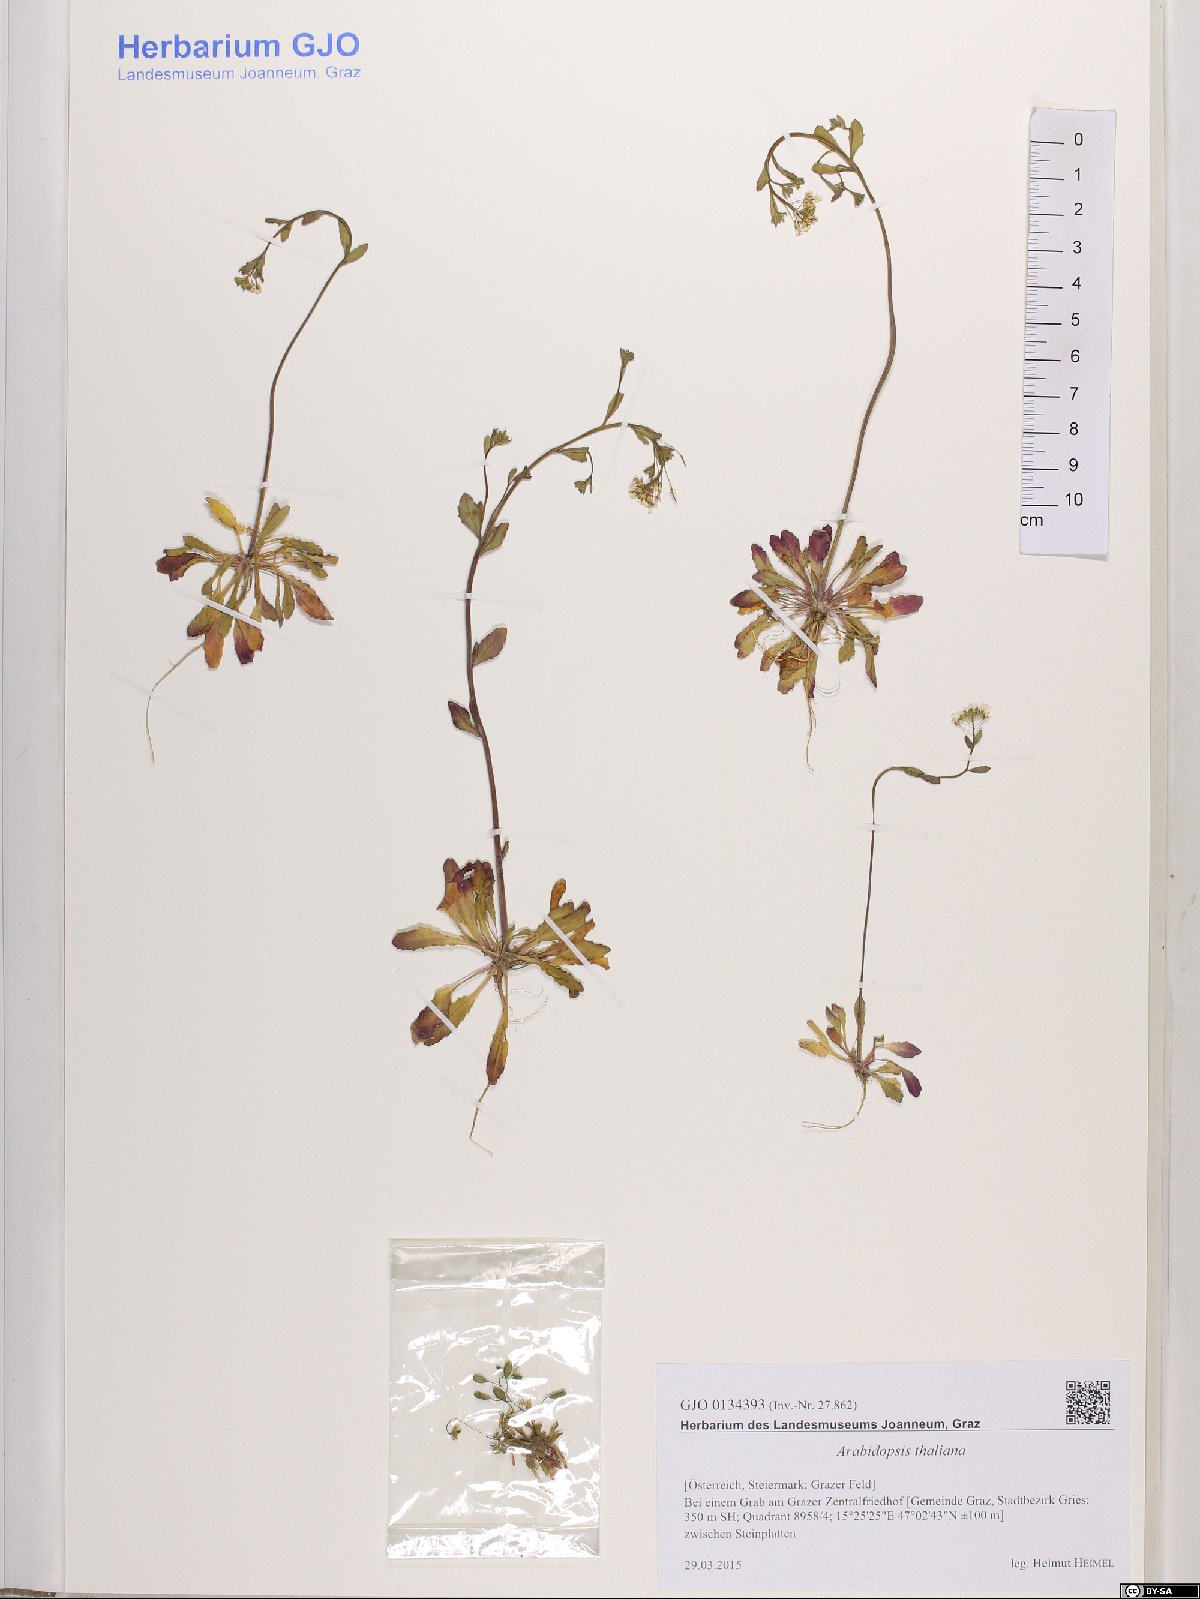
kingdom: Plantae
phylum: Tracheophyta
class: Magnoliopsida
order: Brassicales
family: Brassicaceae
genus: Arabidopsis
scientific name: Arabidopsis thaliana
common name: Thale cress
